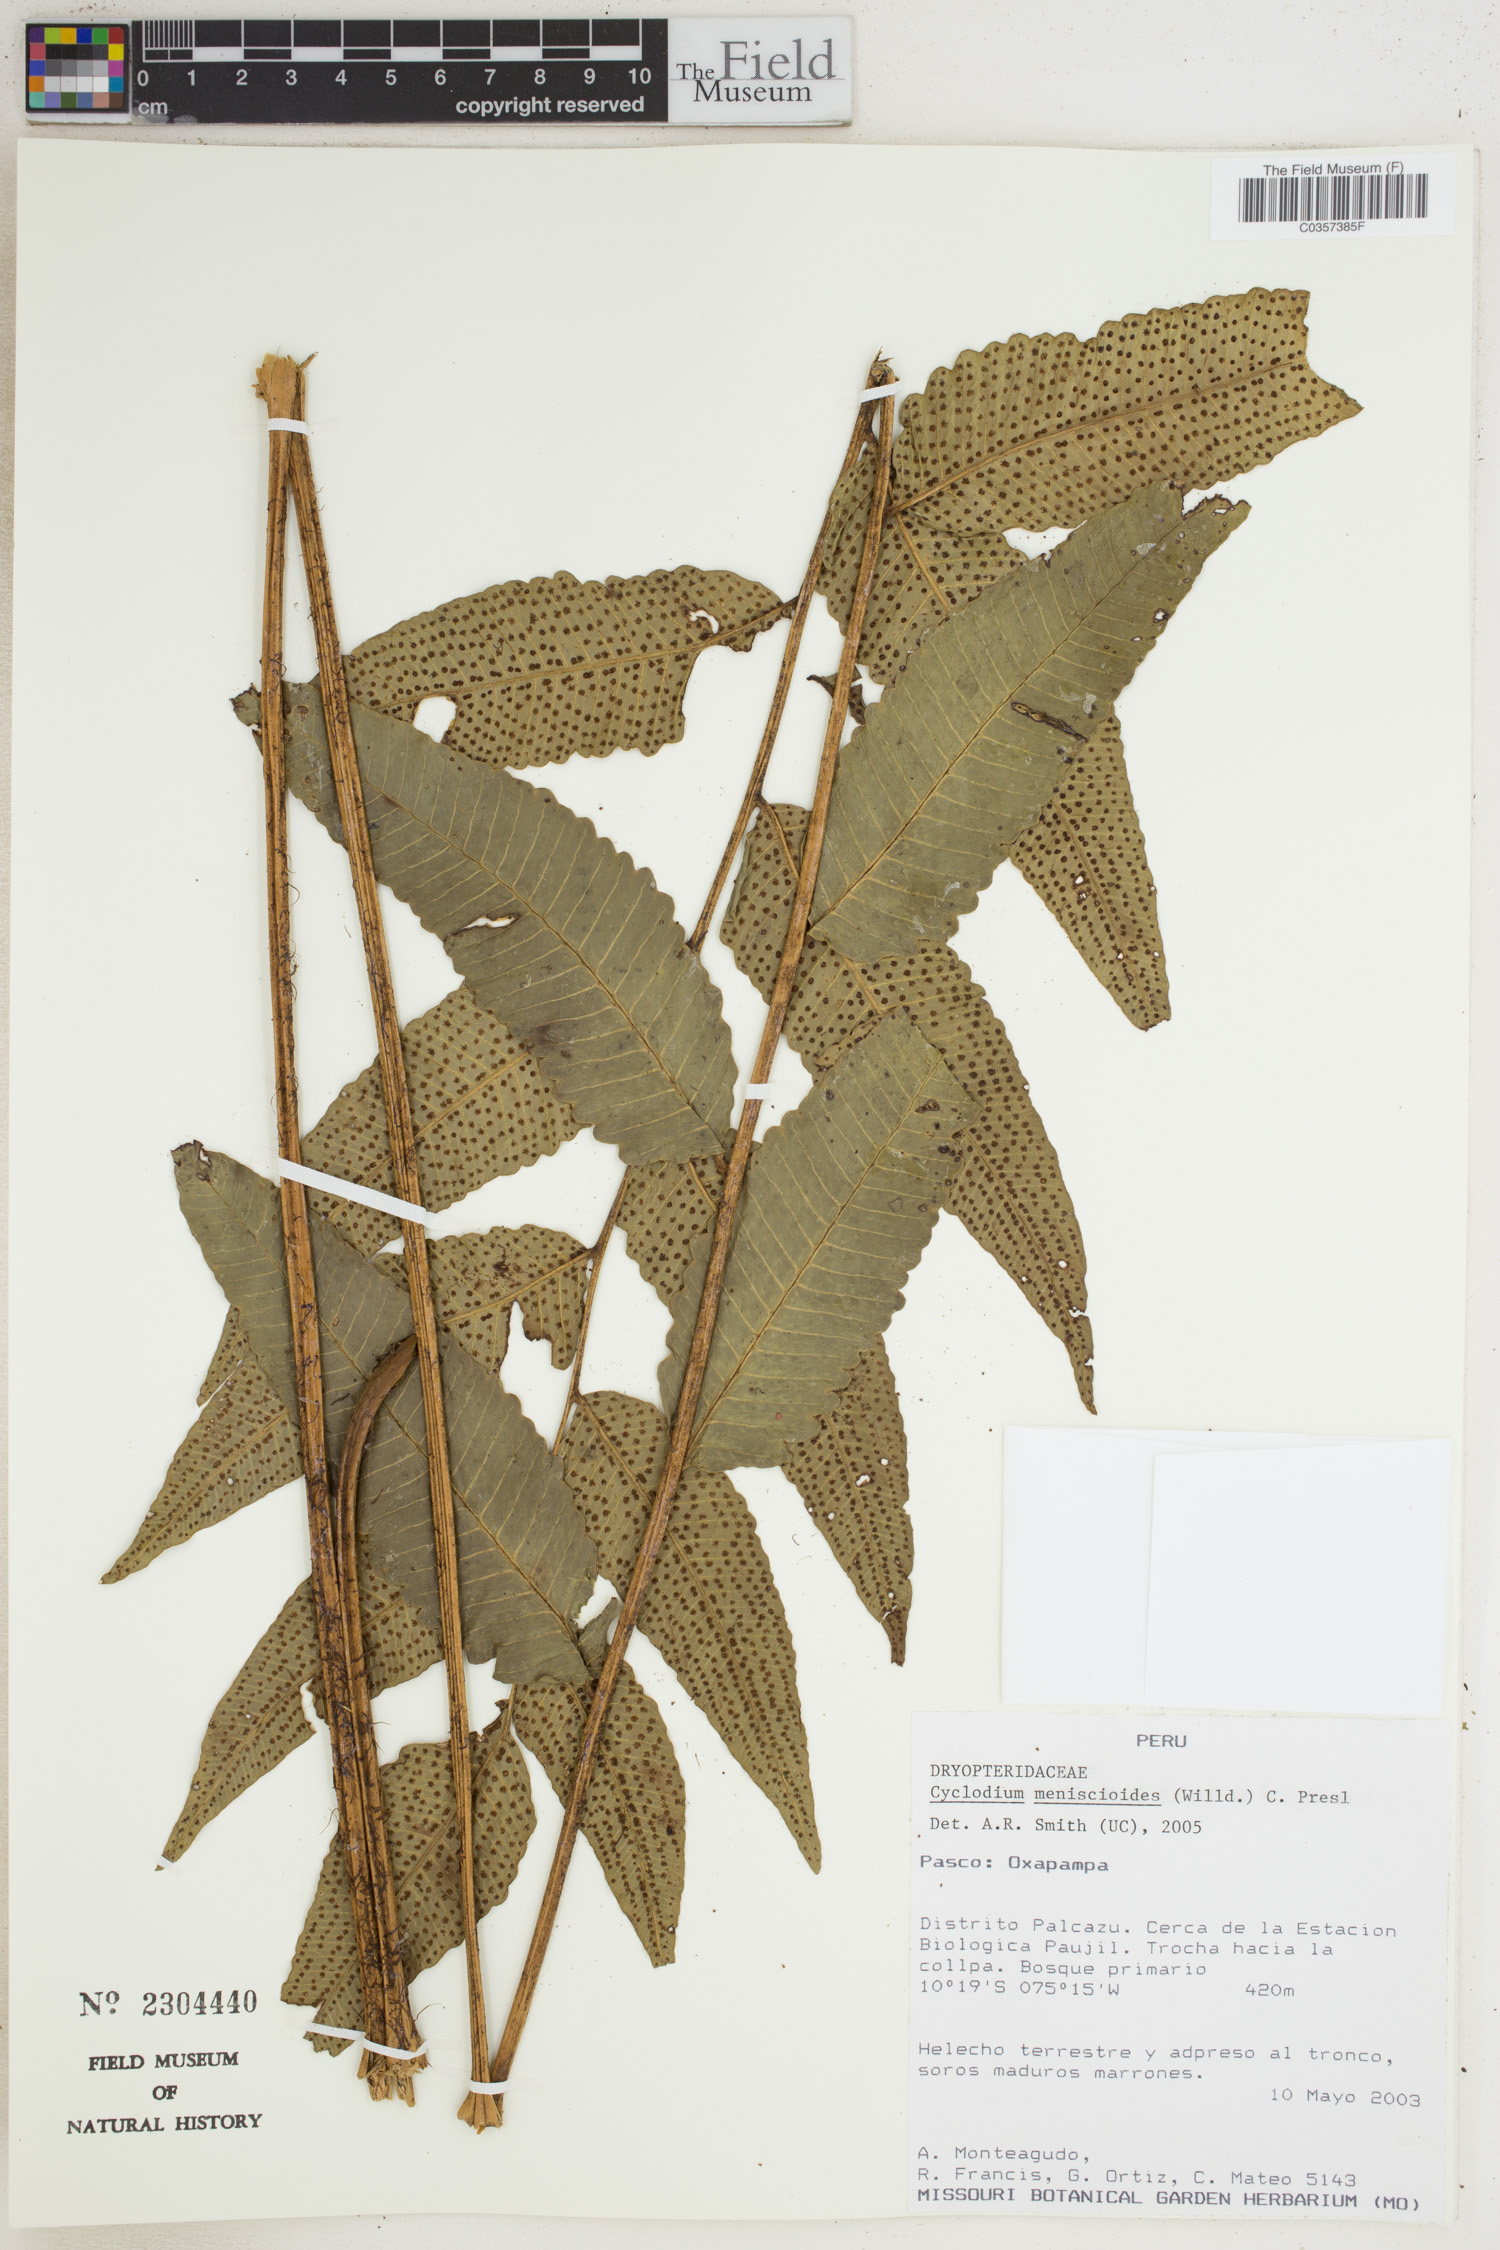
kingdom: Plantae
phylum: Tracheophyta
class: Polypodiopsida
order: Polypodiales
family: Dryopteridaceae
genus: Cyclodium
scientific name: Cyclodium meniscioides
